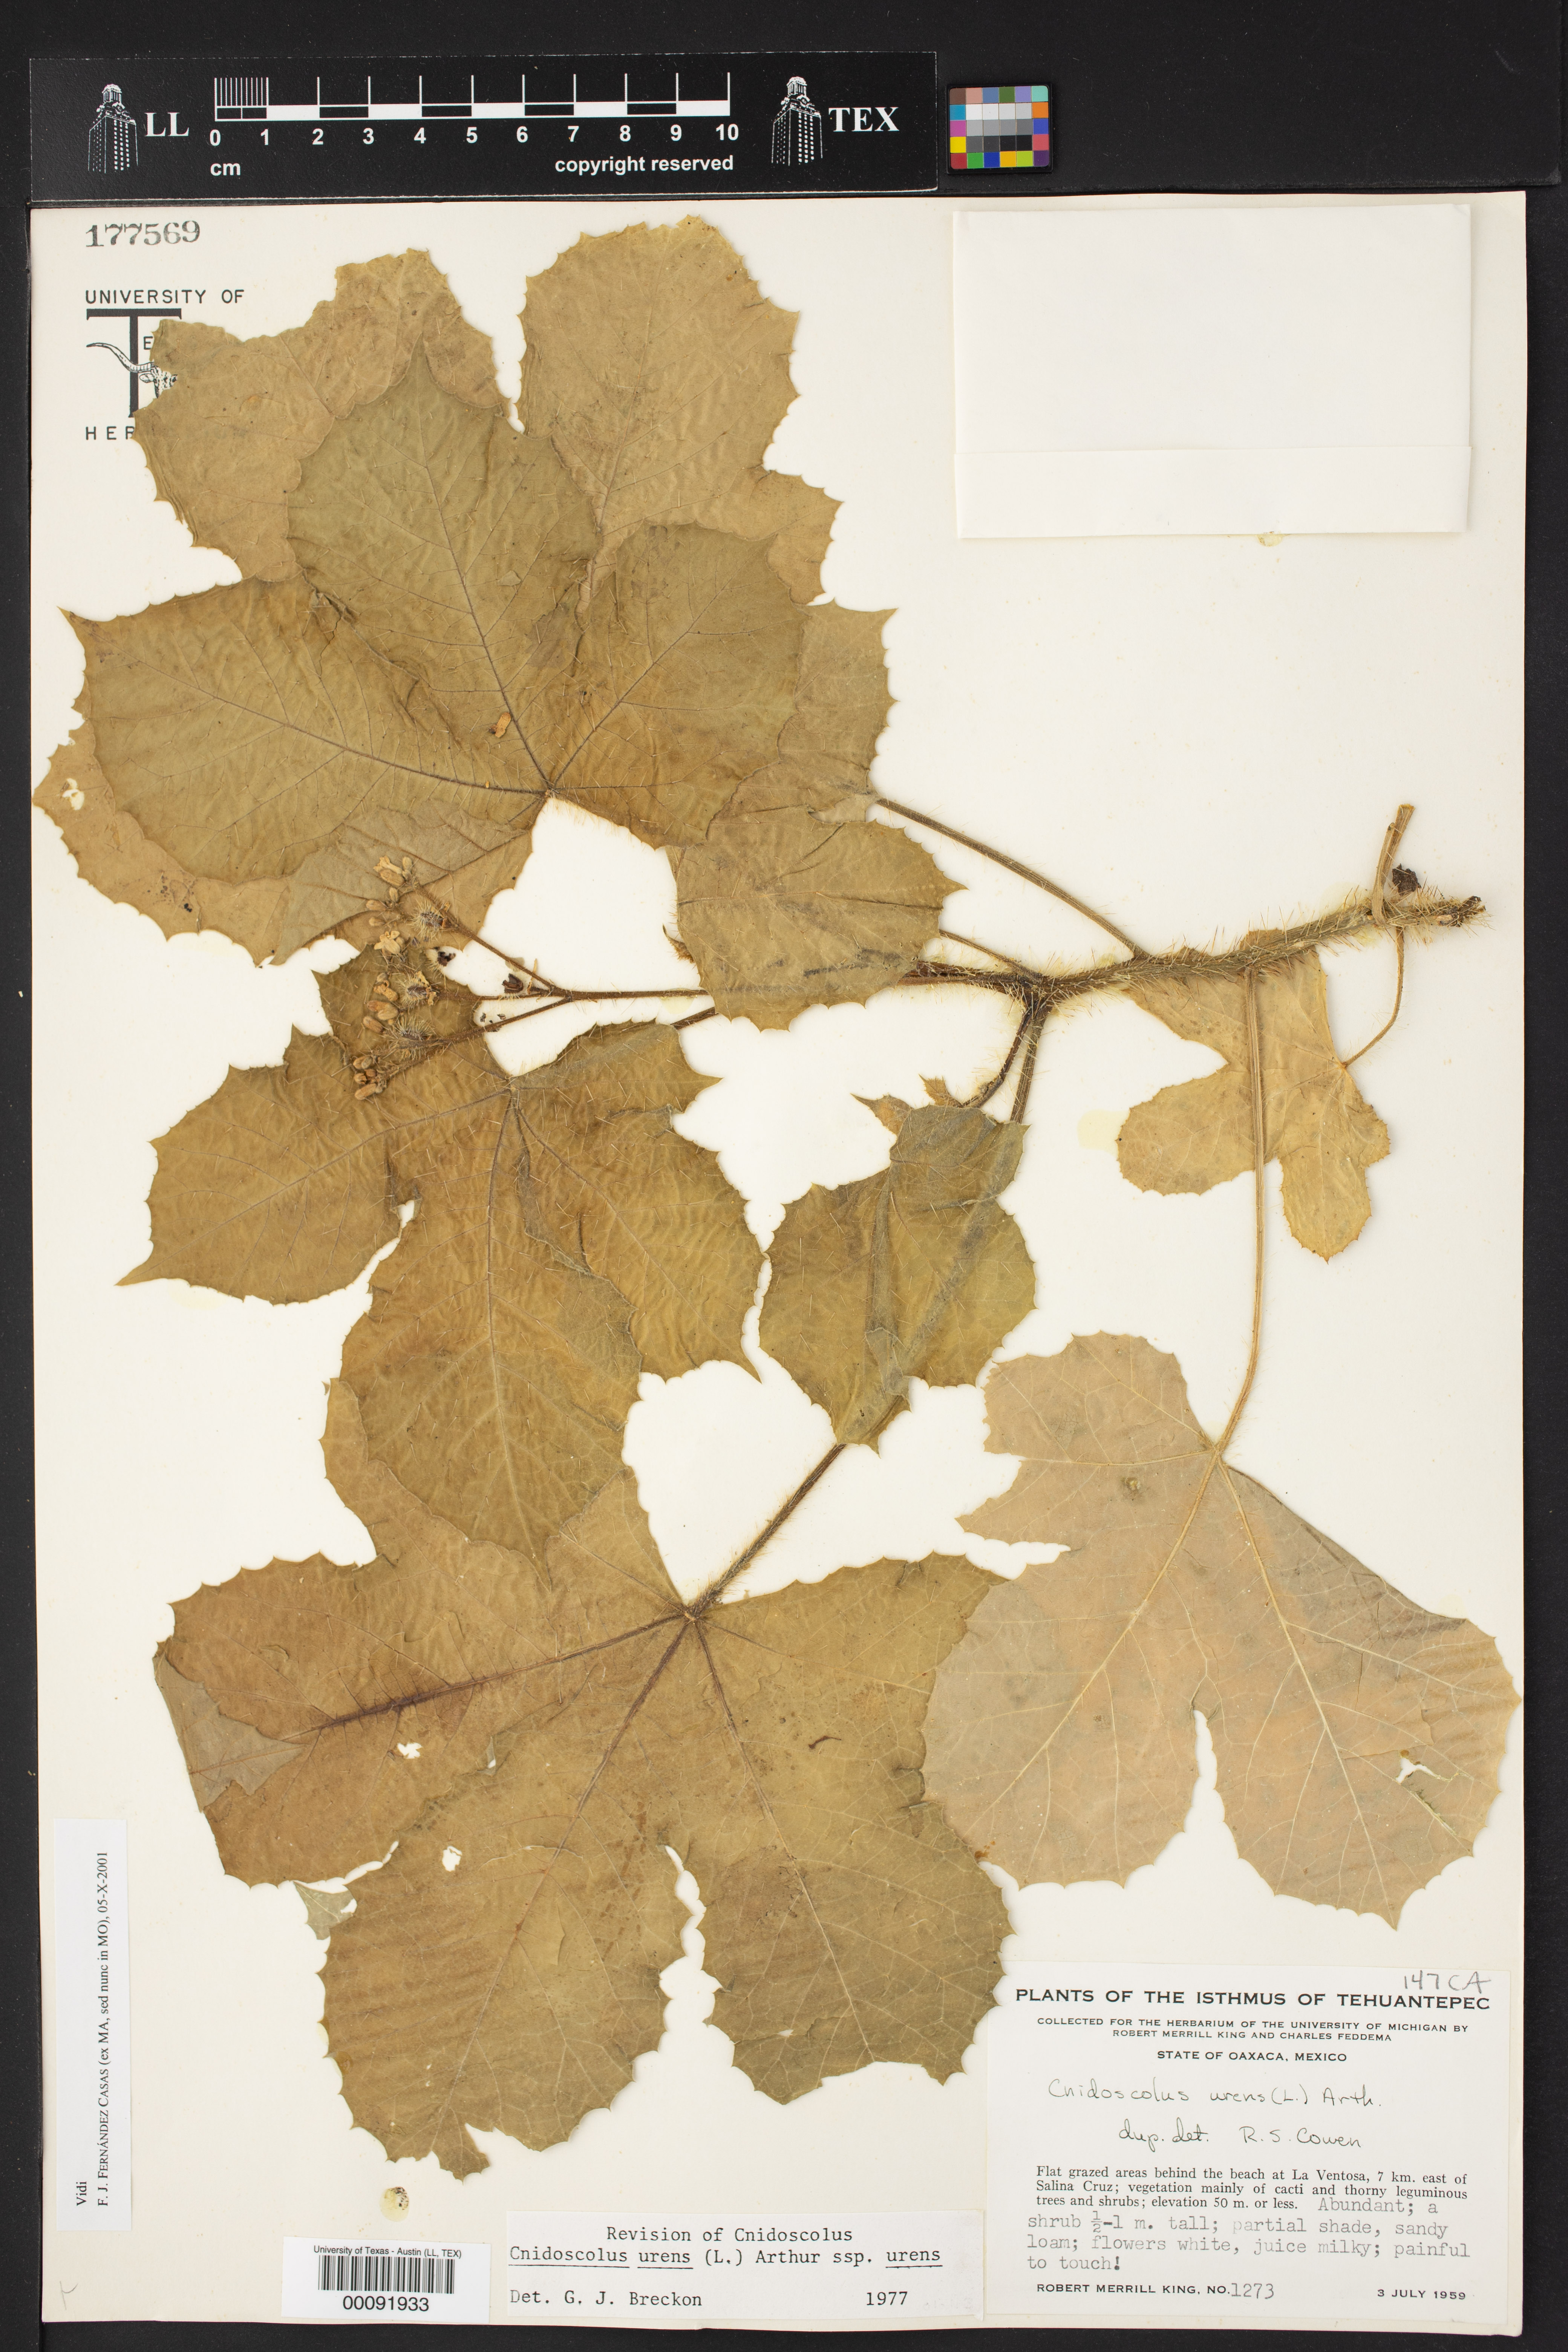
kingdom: Plantae
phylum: Tracheophyta
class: Magnoliopsida
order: Malpighiales
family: Euphorbiaceae
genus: Cnidoscolus
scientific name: Cnidoscolus urens
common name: Bull-nettle
